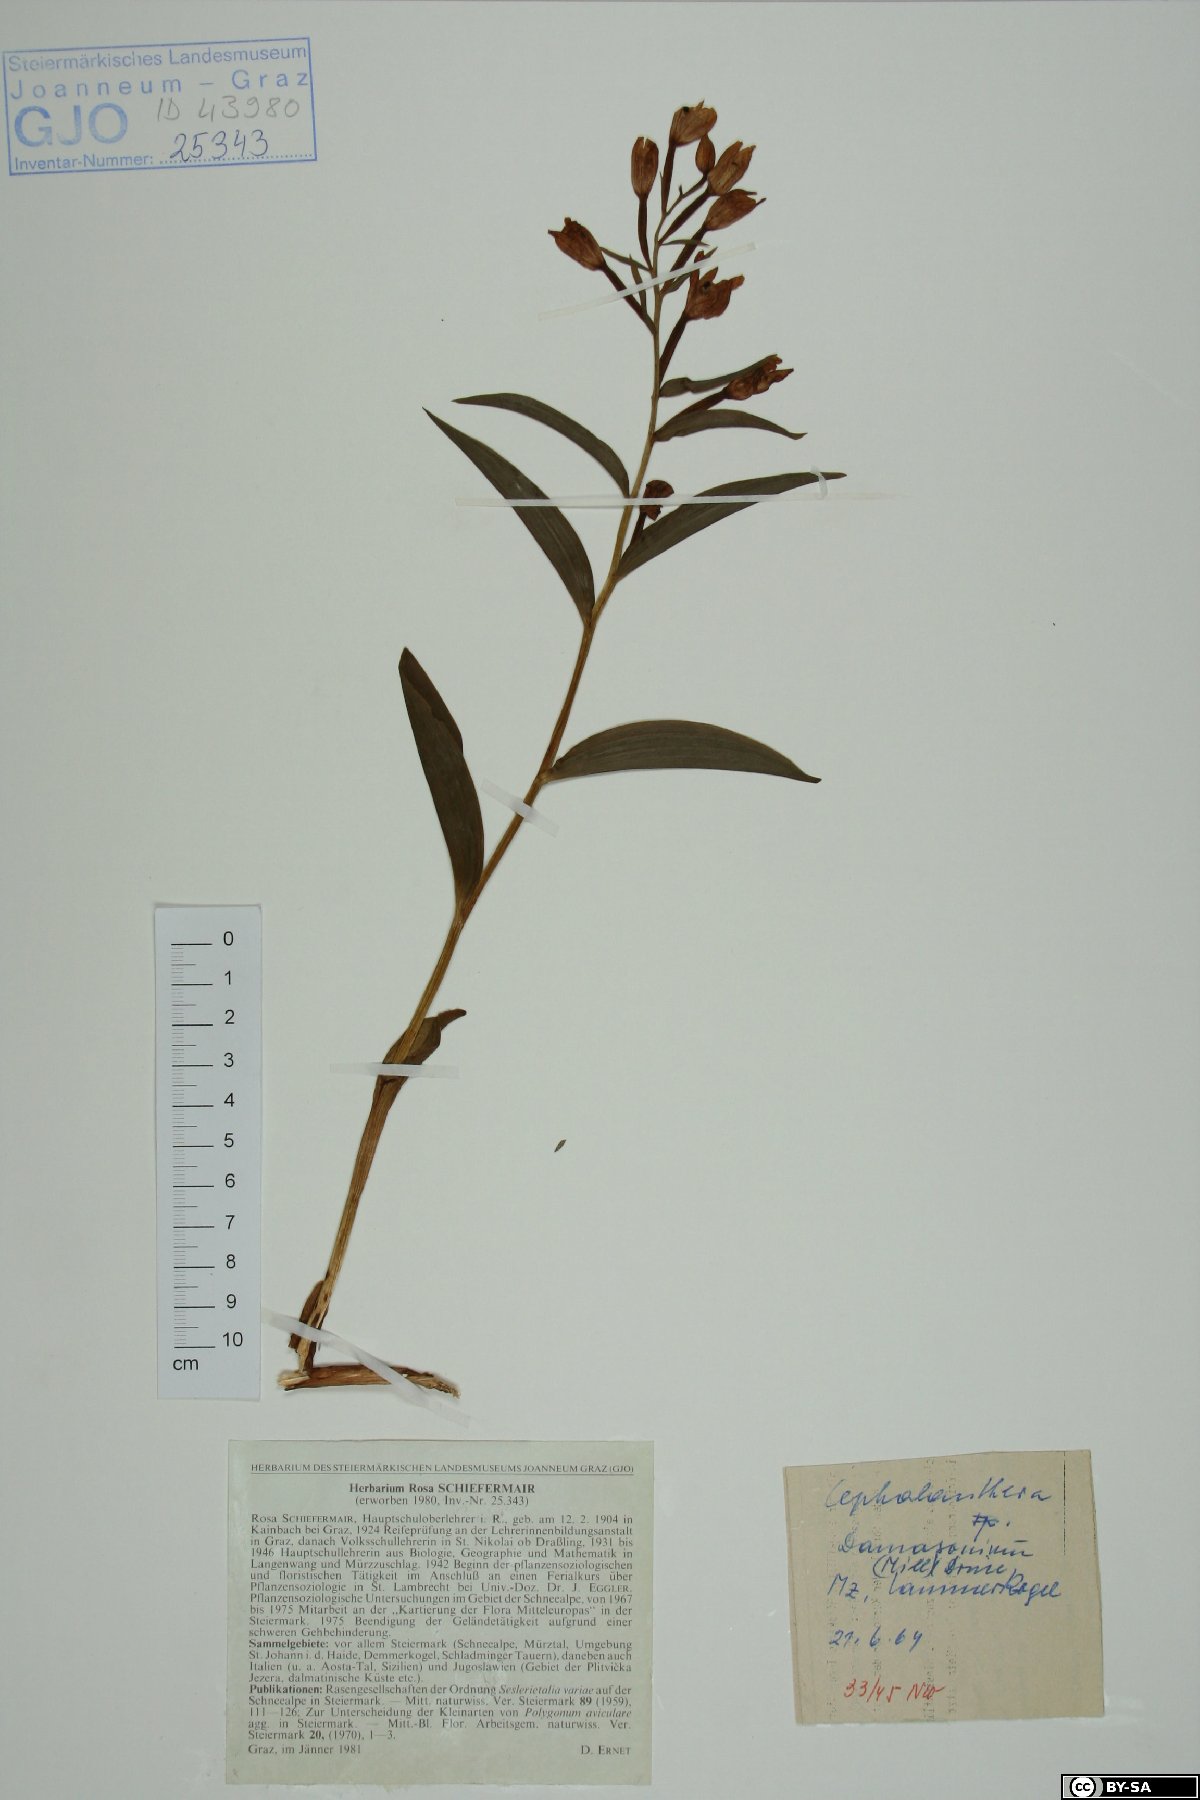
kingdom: Plantae
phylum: Tracheophyta
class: Liliopsida
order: Asparagales
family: Orchidaceae
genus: Cephalanthera
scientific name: Cephalanthera damasonium
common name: White helleborine
